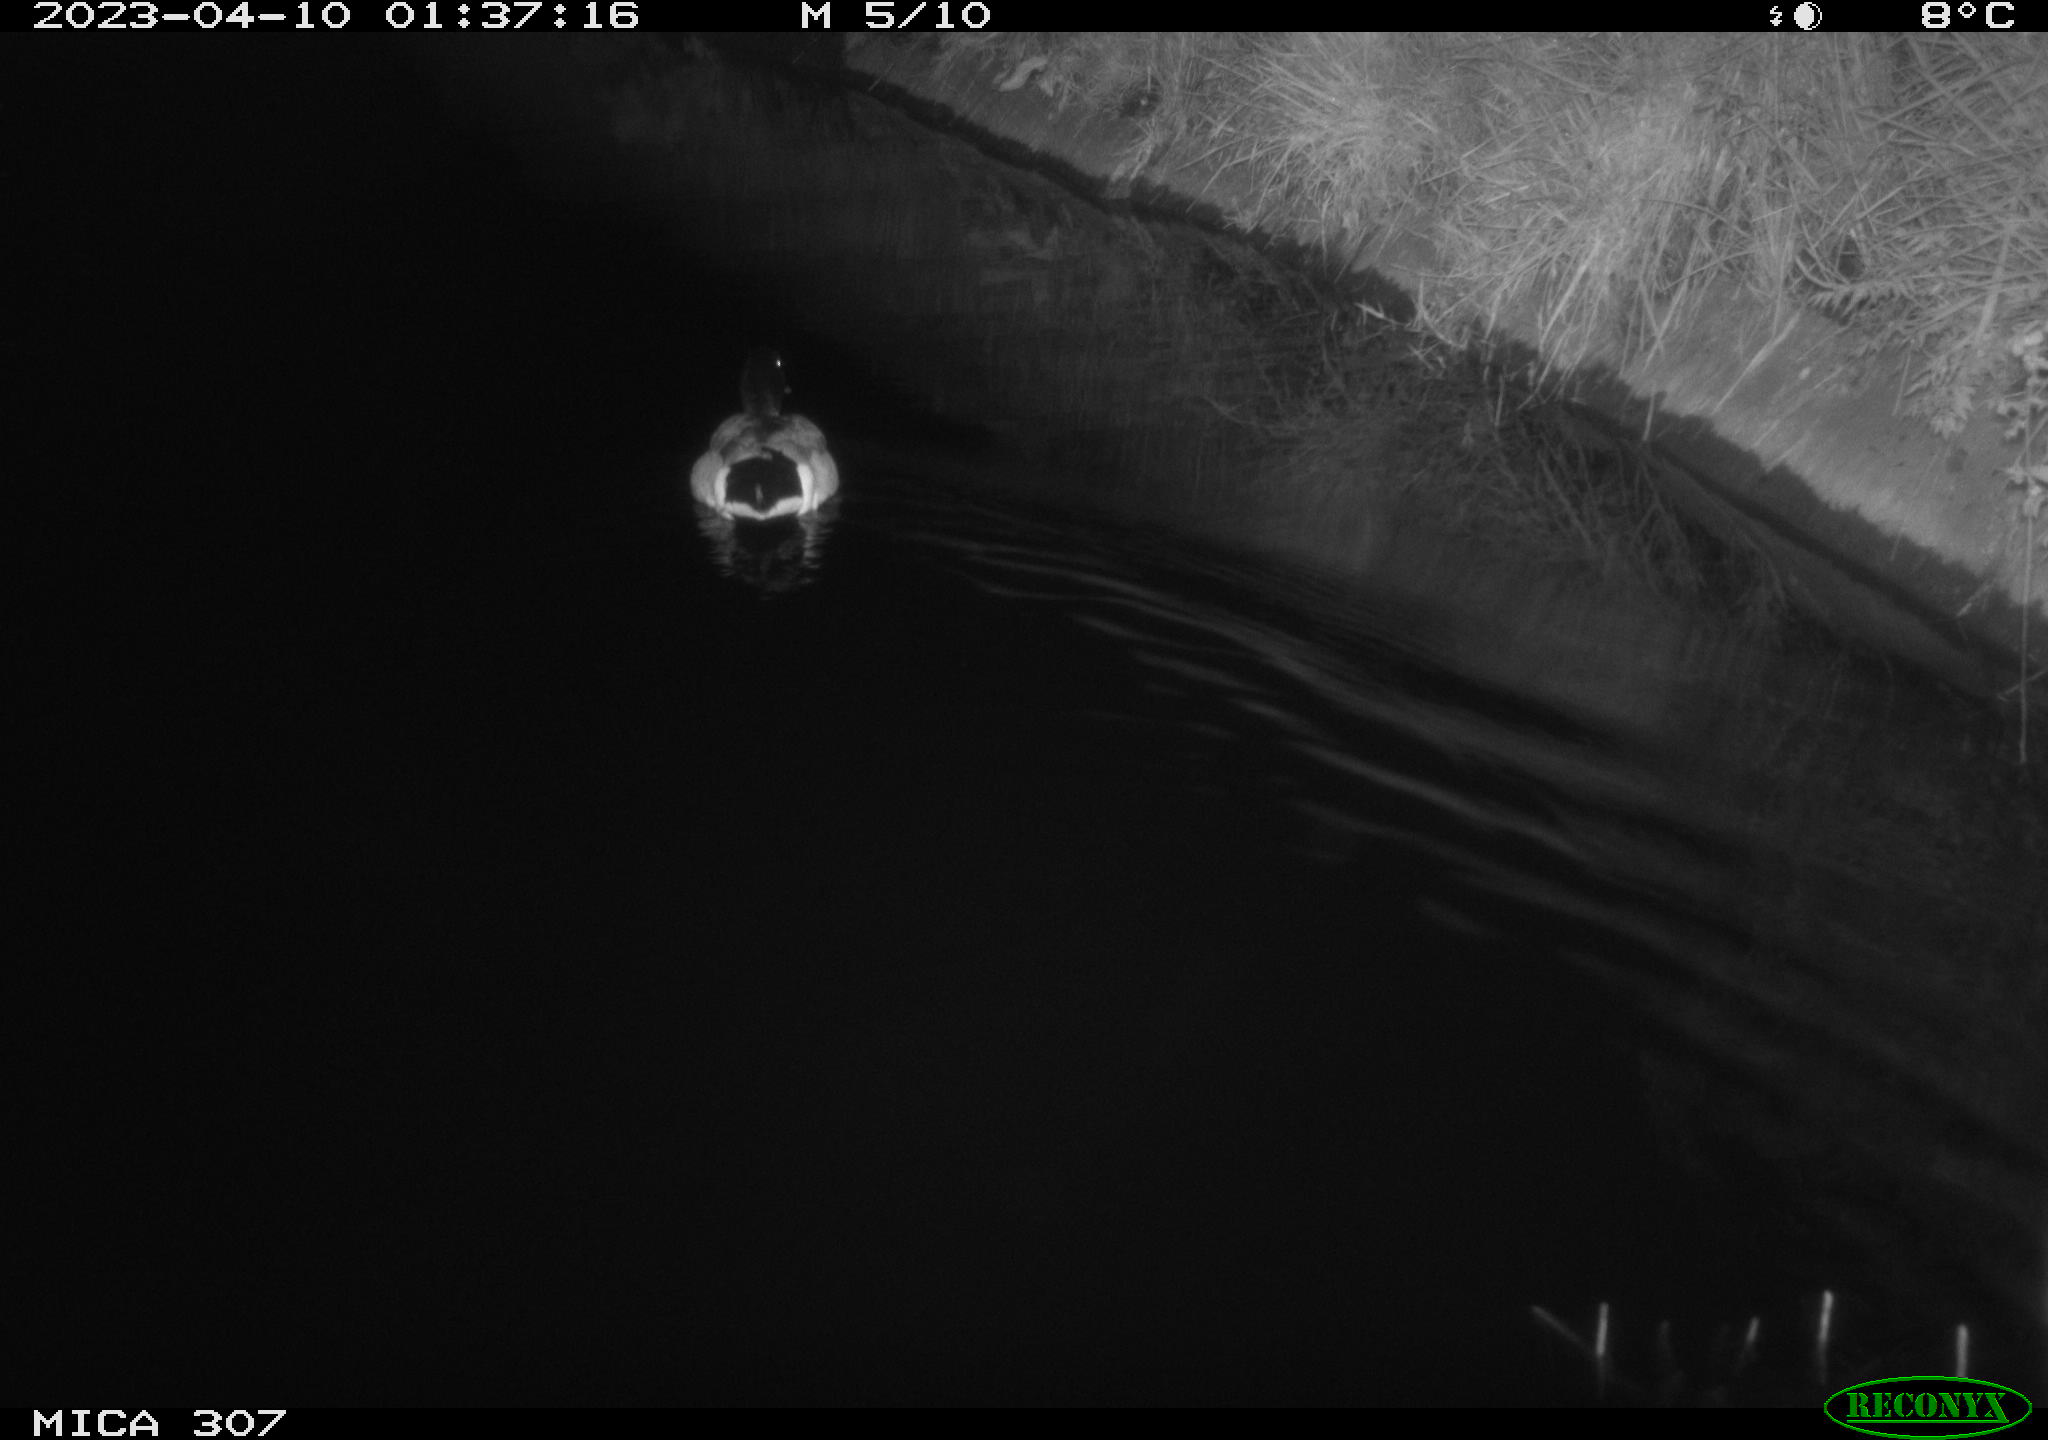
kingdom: Animalia
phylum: Chordata
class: Aves
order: Anseriformes
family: Anatidae
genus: Anas
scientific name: Anas
